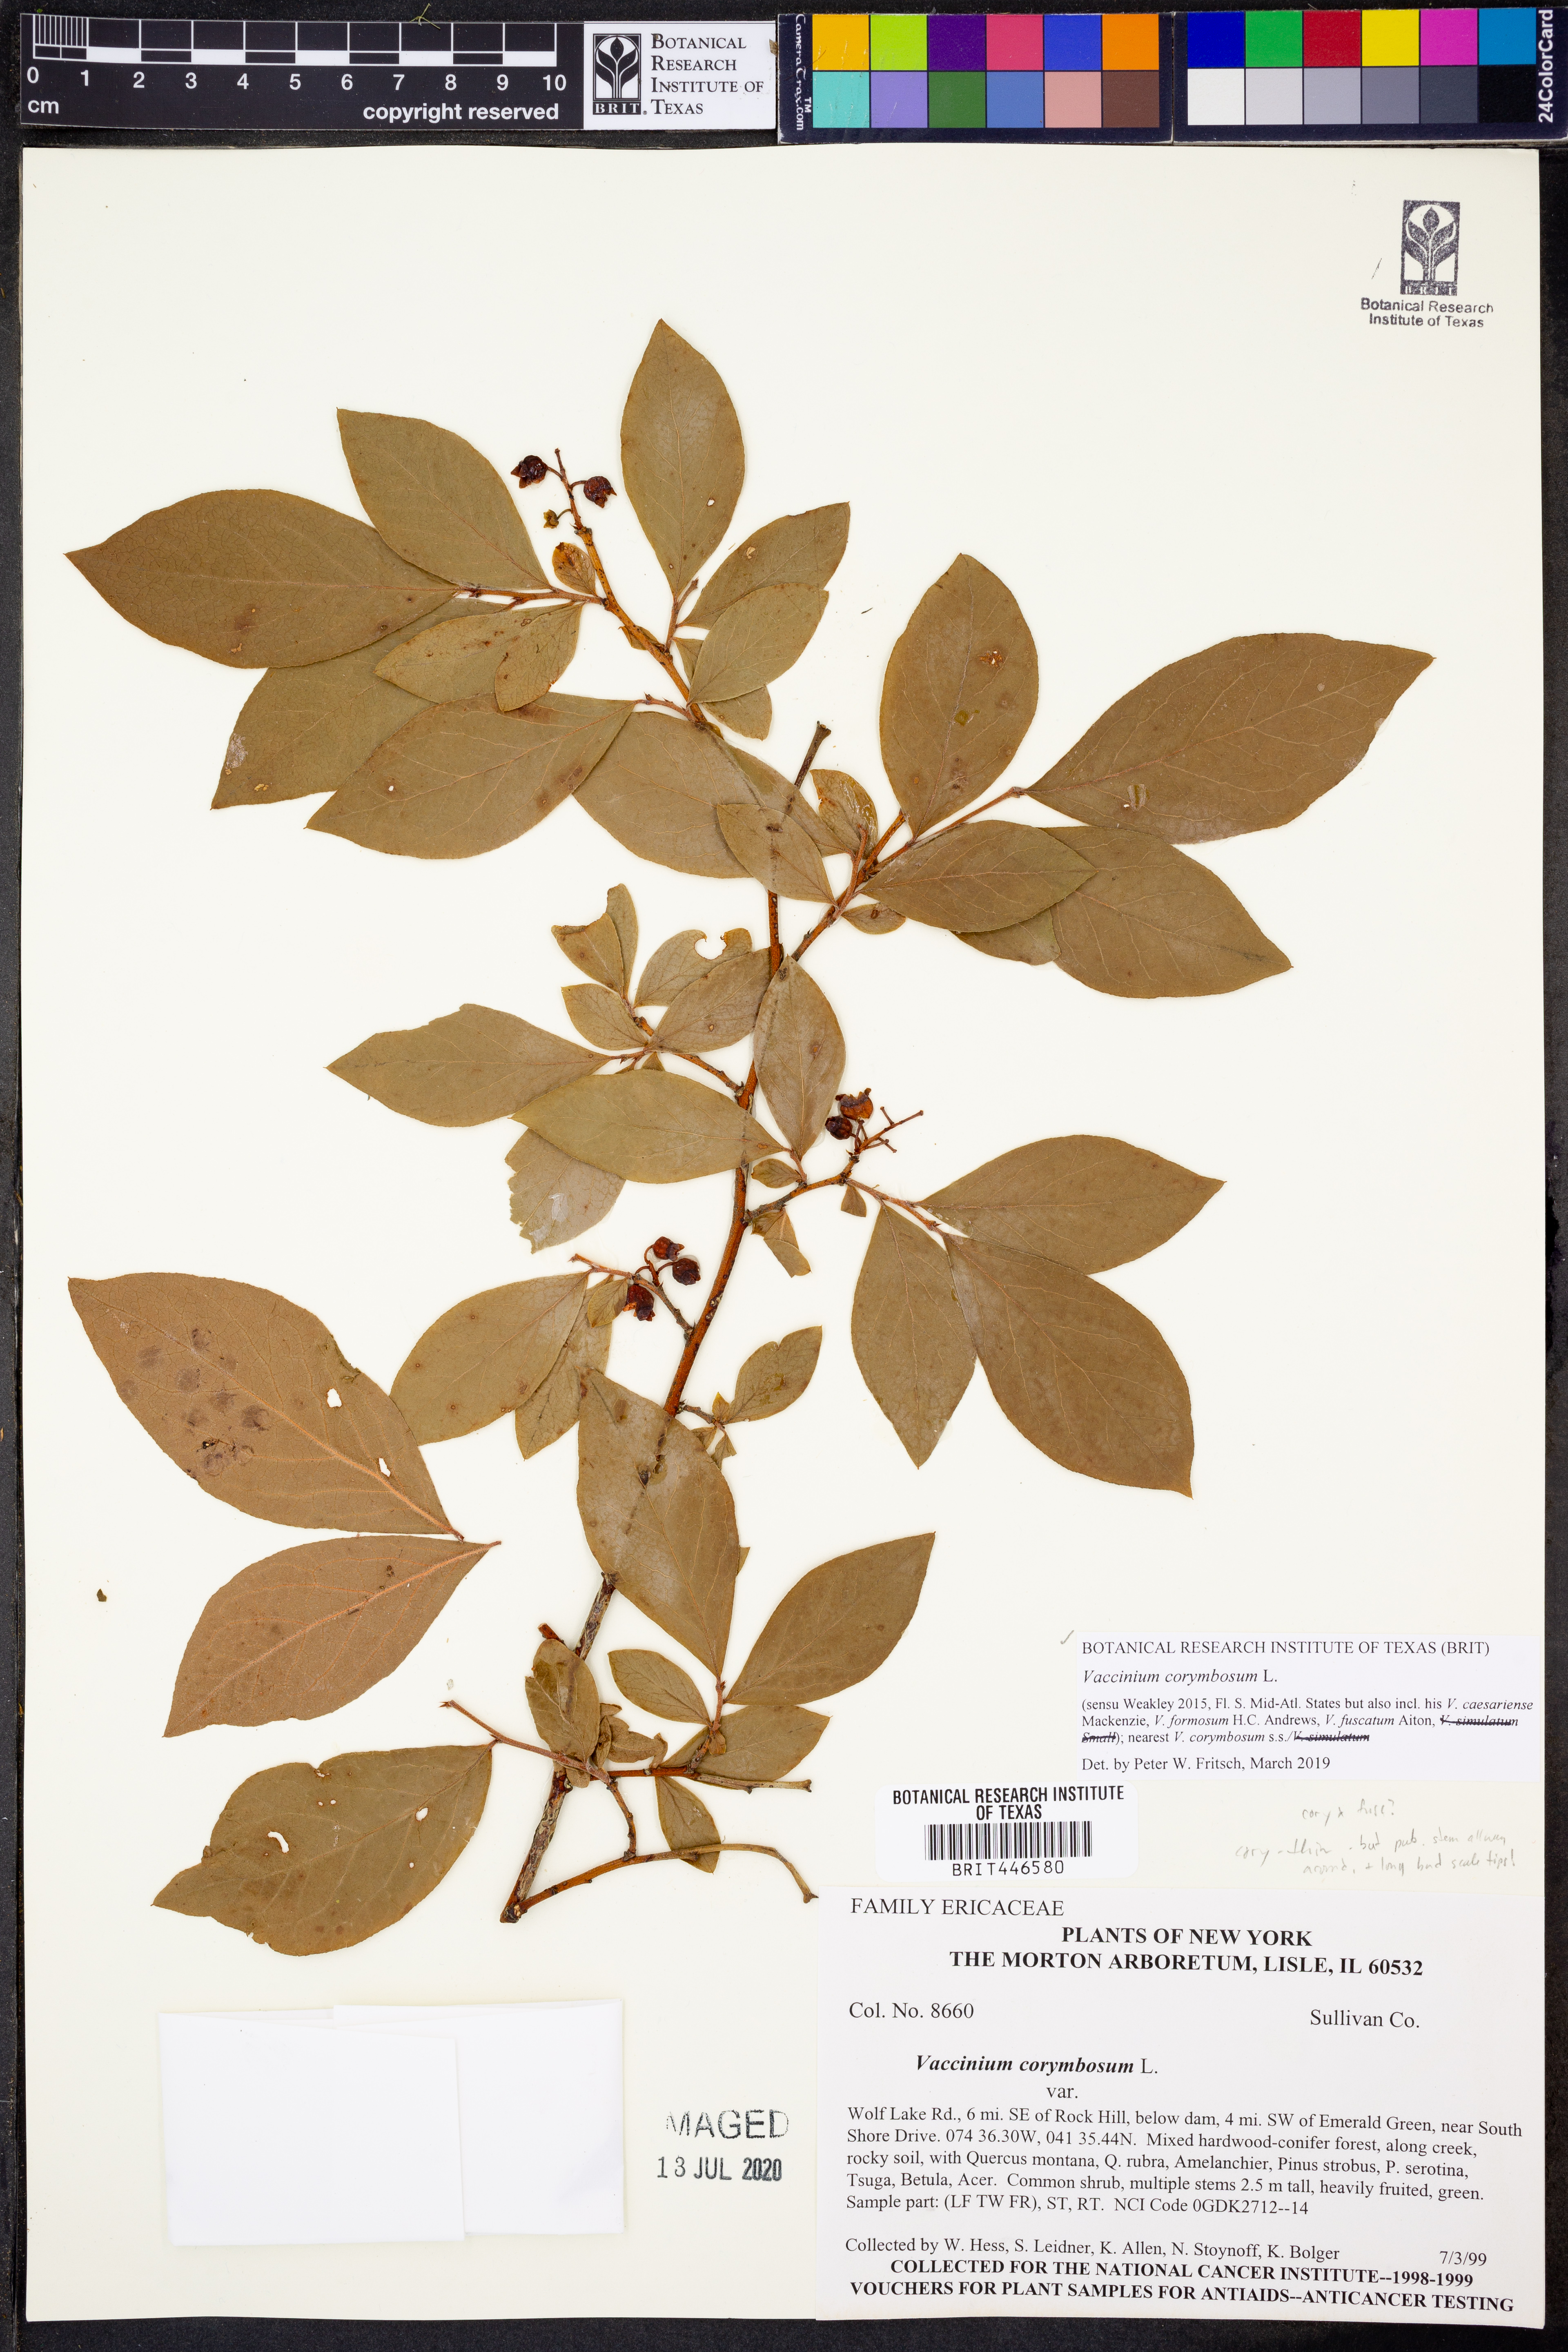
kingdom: Plantae
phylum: Tracheophyta
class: Magnoliopsida
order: Ericales
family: Ericaceae
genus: Vaccinium
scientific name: Vaccinium corymbosum
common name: Blueberry
